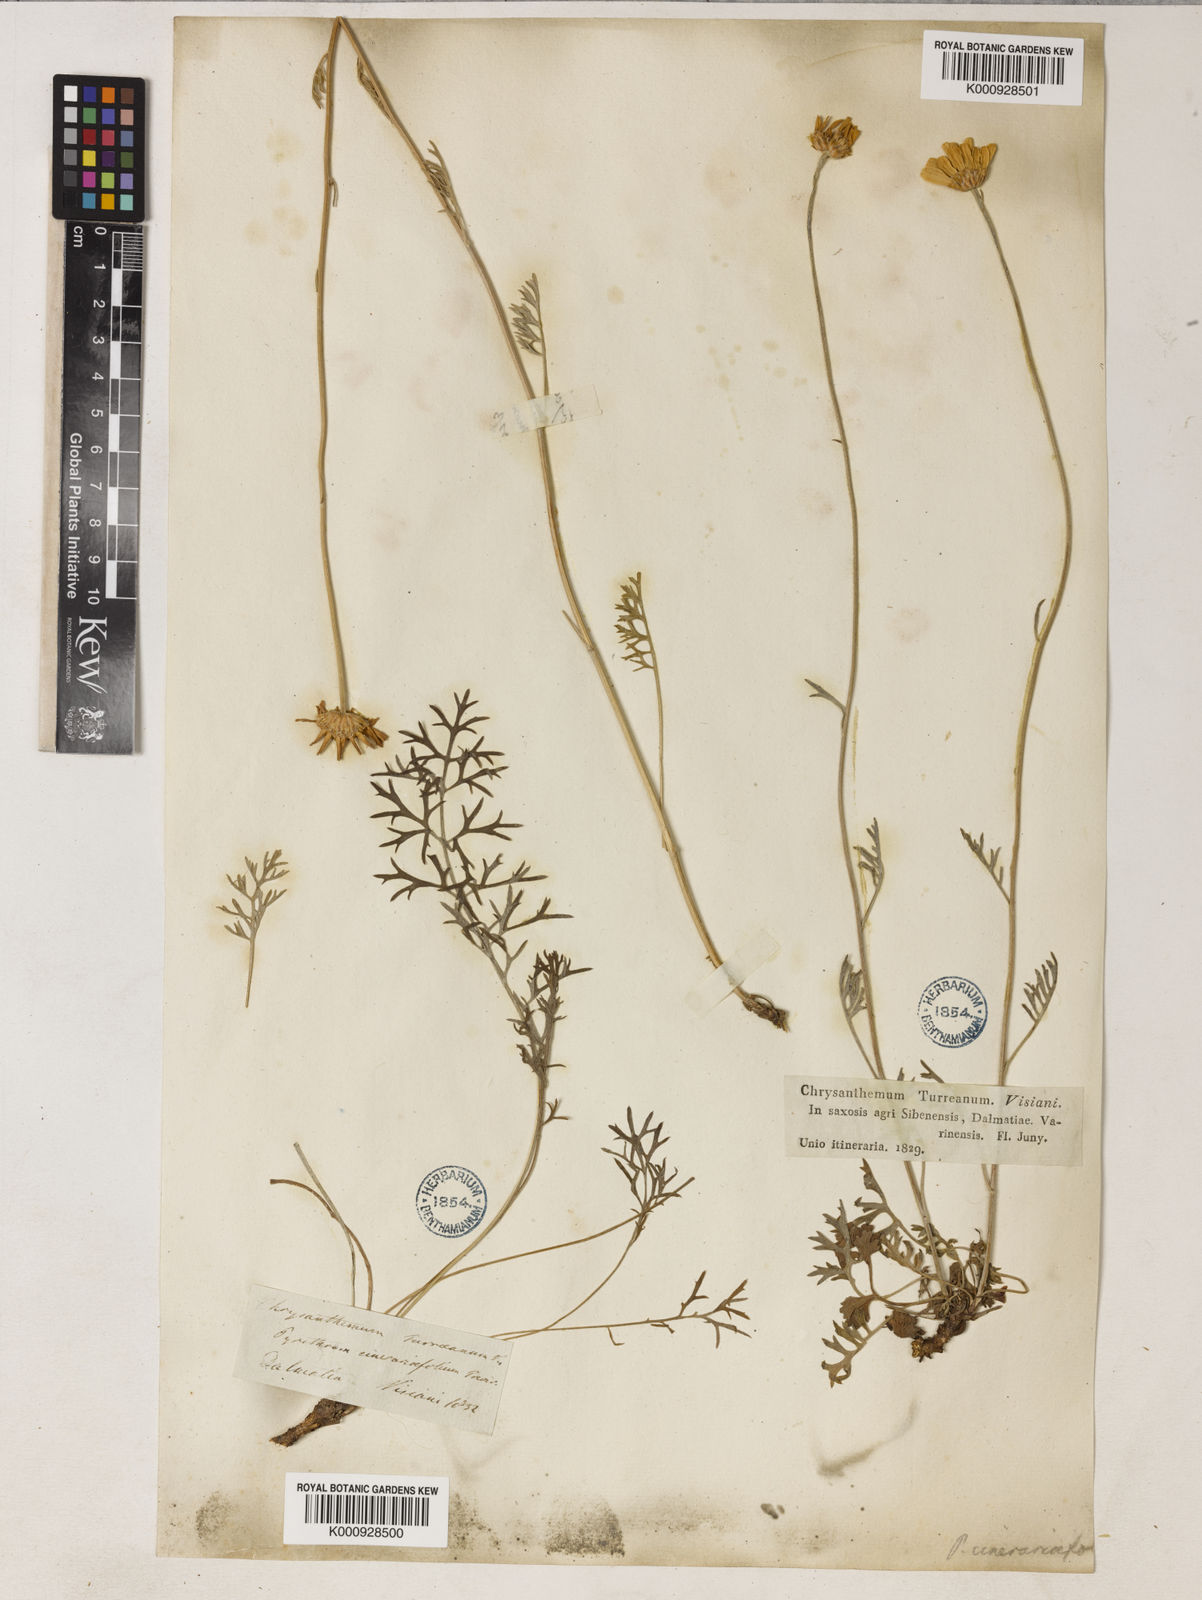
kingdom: Plantae
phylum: Tracheophyta
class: Magnoliopsida
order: Asterales
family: Asteraceae
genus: Tanacetum
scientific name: Tanacetum cinerariifolium
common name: Dalmatian pyrethrum
